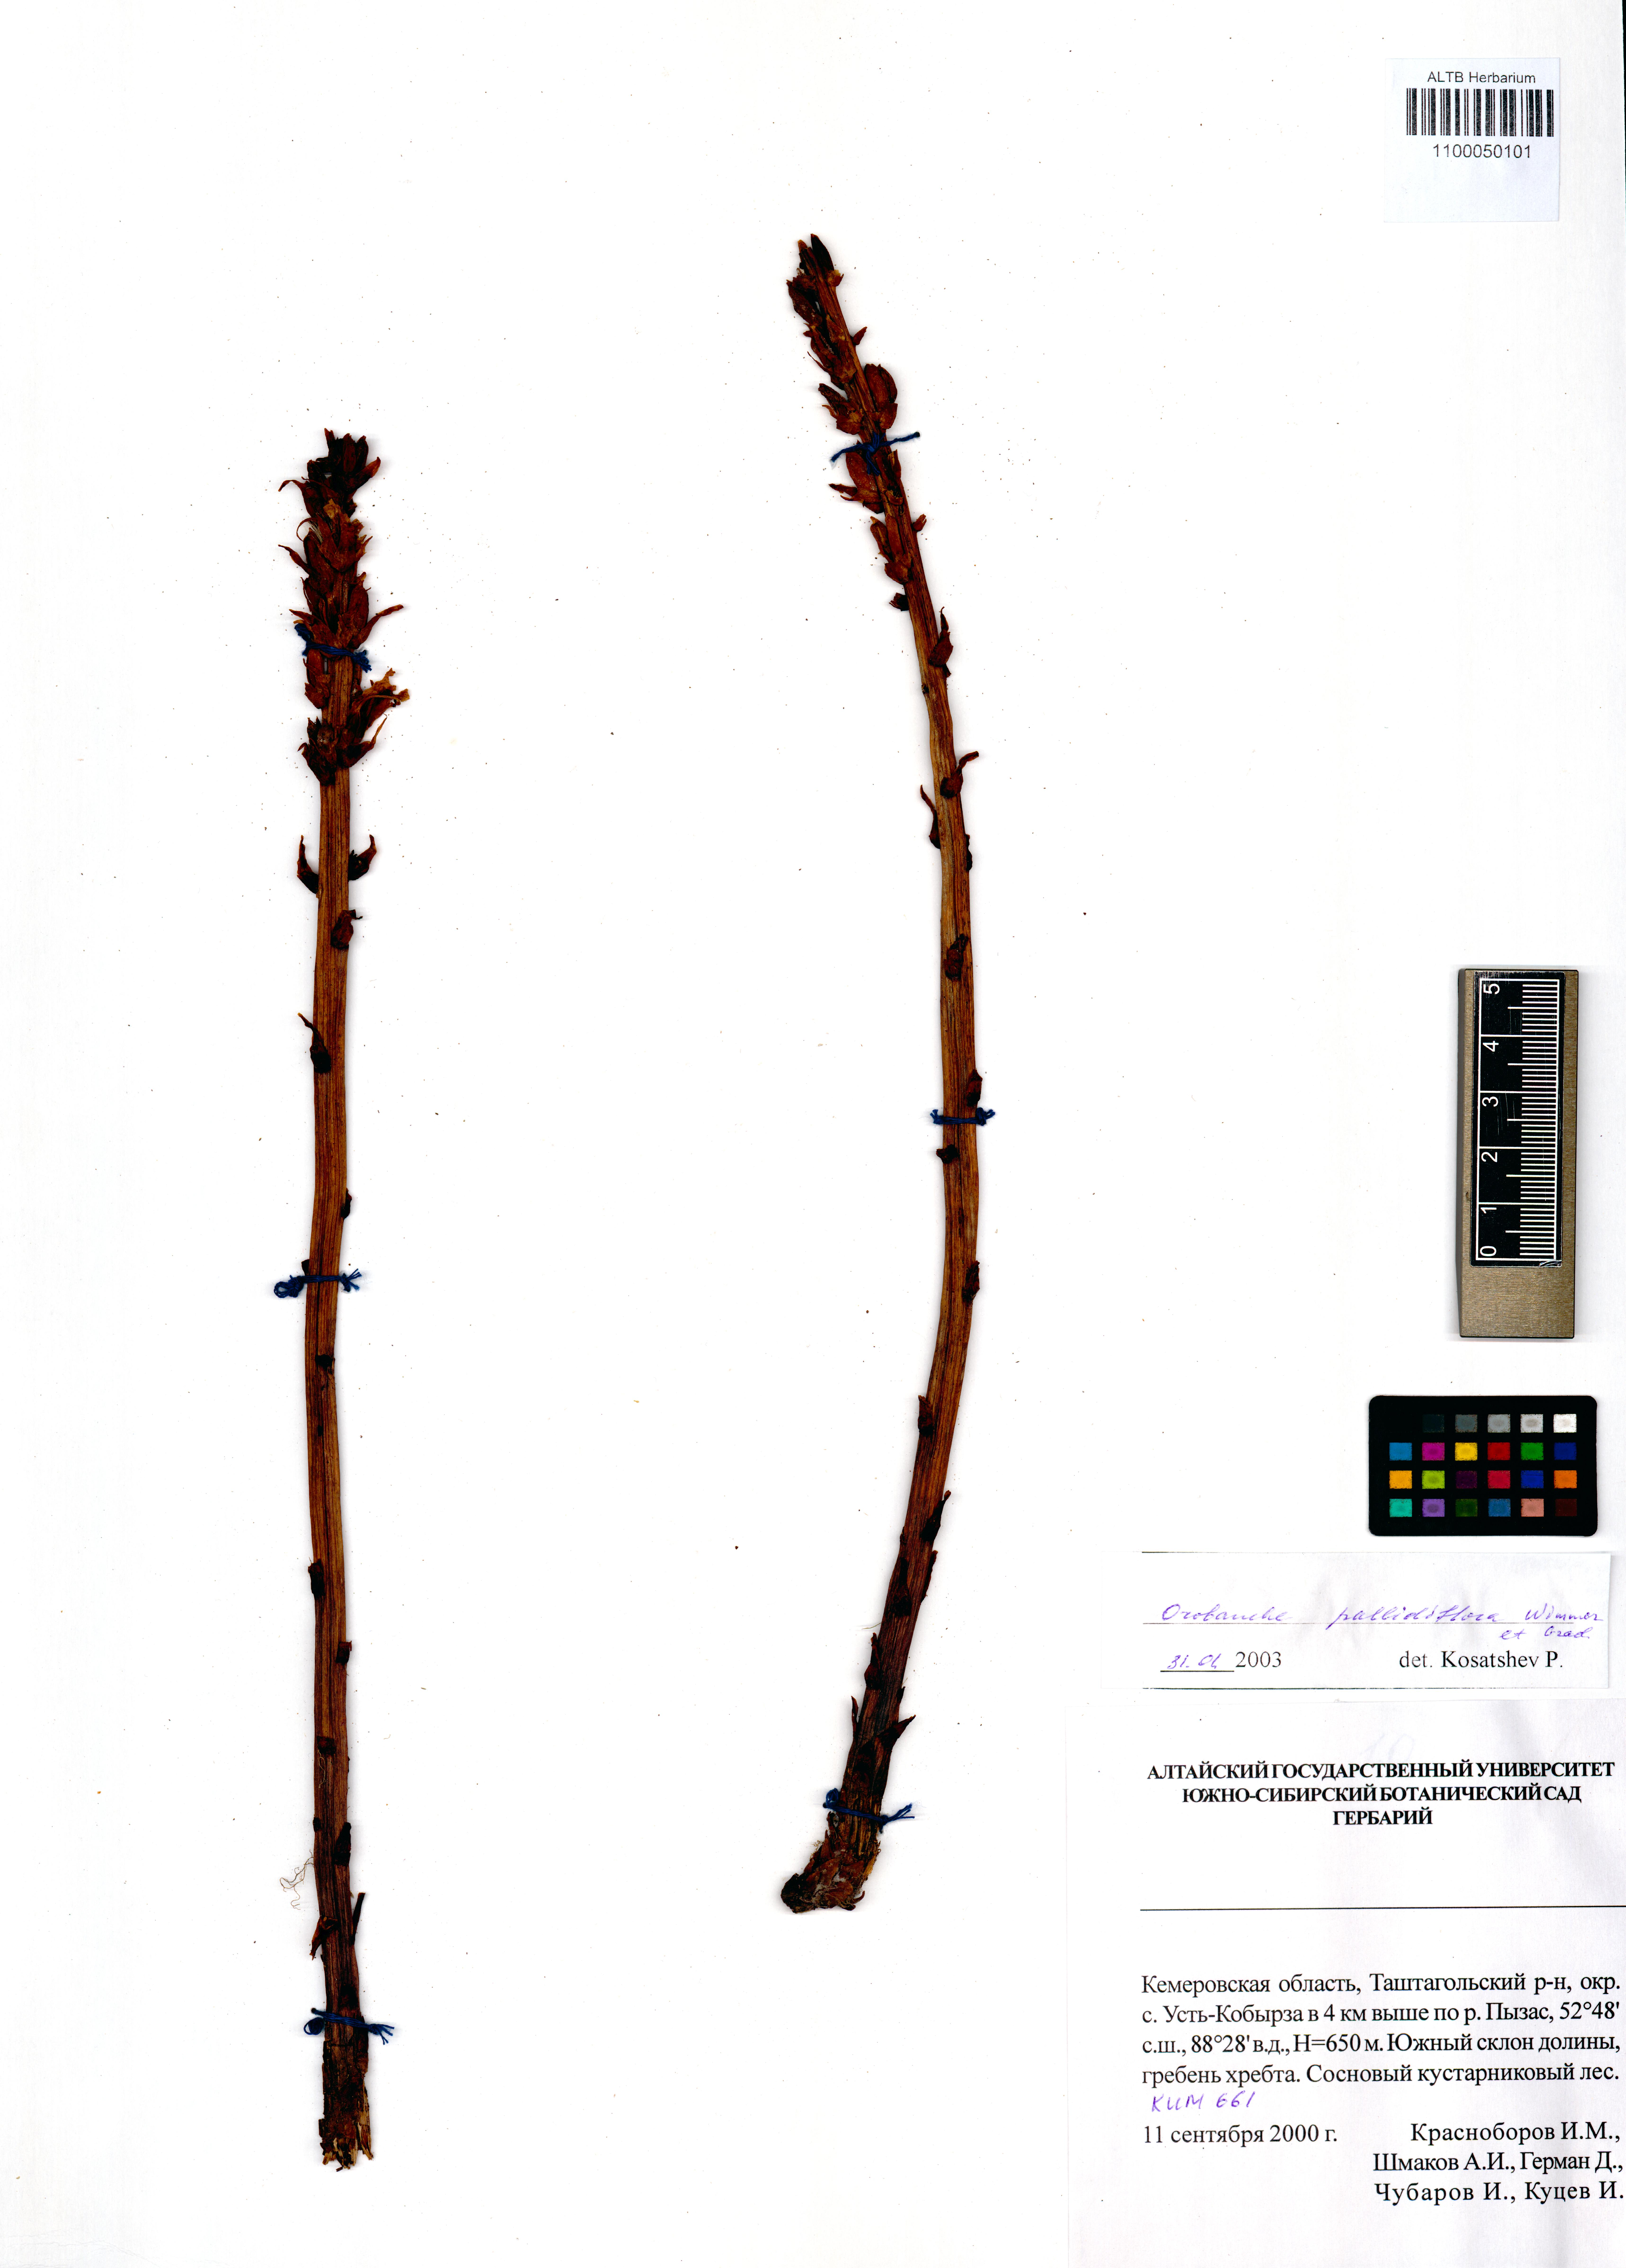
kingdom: Plantae
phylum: Tracheophyta
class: Magnoliopsida
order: Lamiales
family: Orobanchaceae
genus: Orobanche
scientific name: Orobanche reticulata
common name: Thistle broomrape
